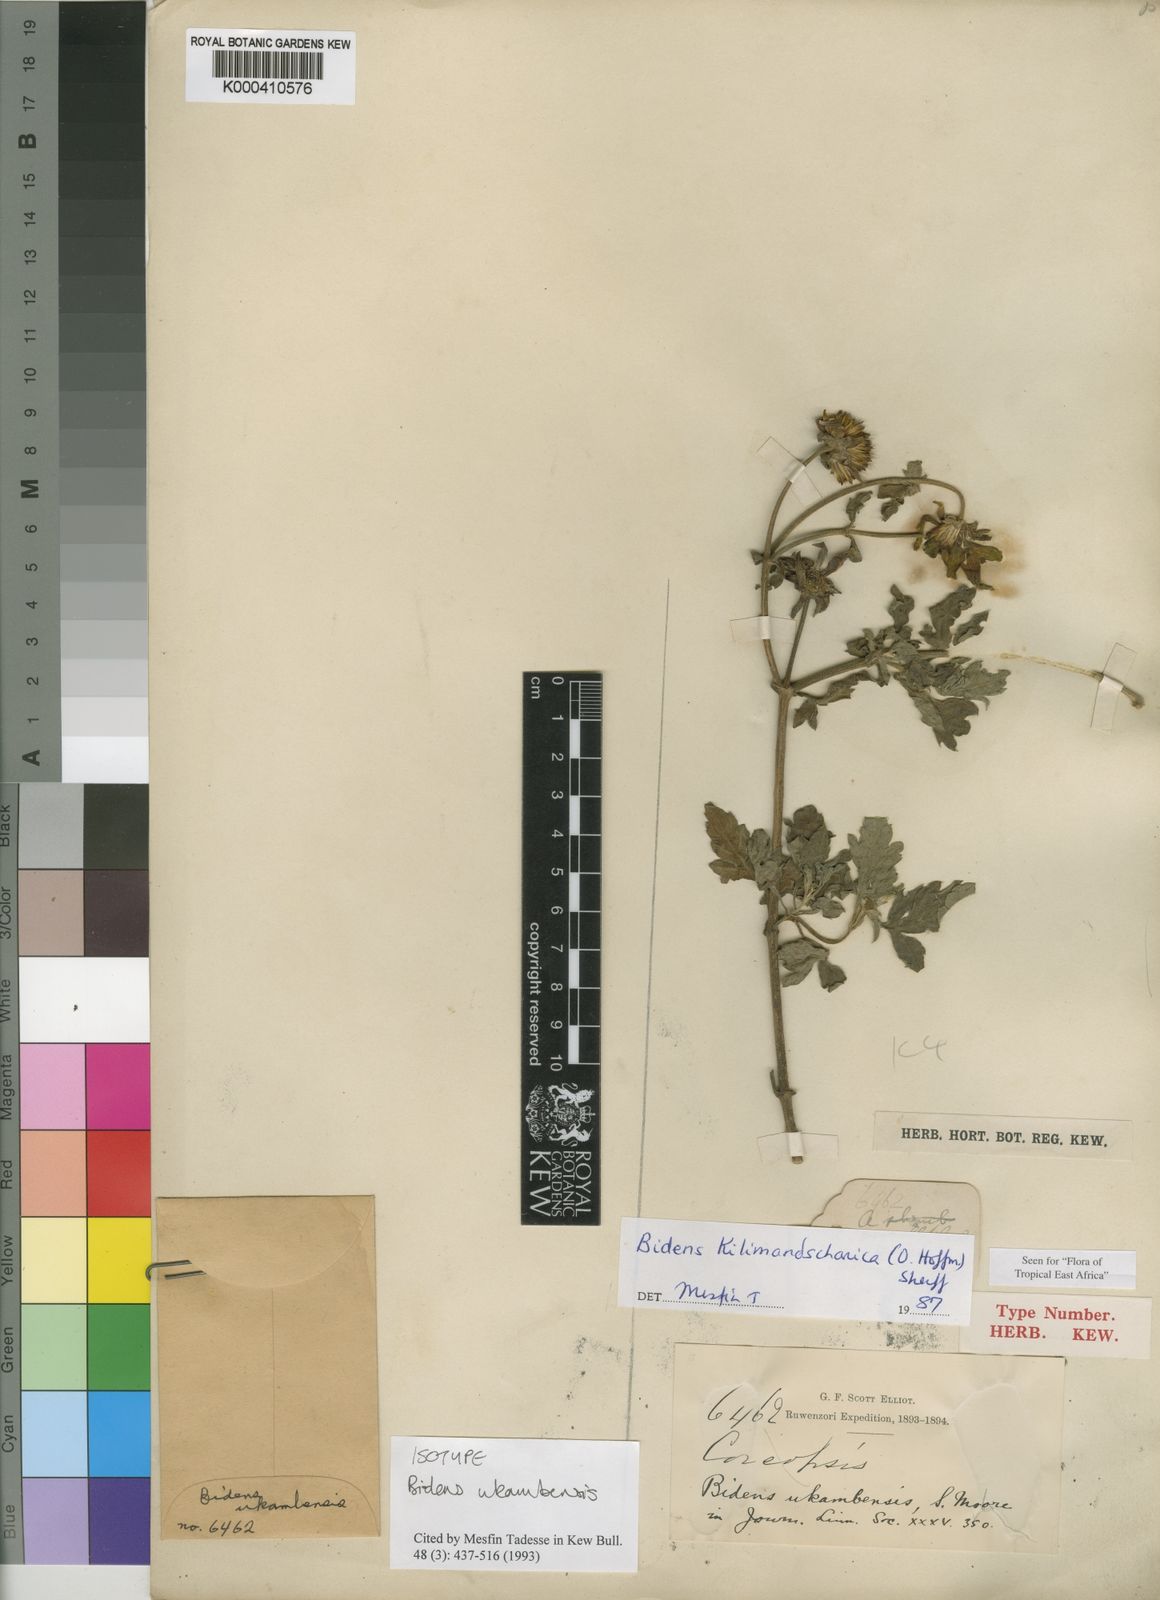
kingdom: Plantae
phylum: Tracheophyta
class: Magnoliopsida
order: Asterales
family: Asteraceae
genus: Bidens
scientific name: Bidens kilimandscharica
